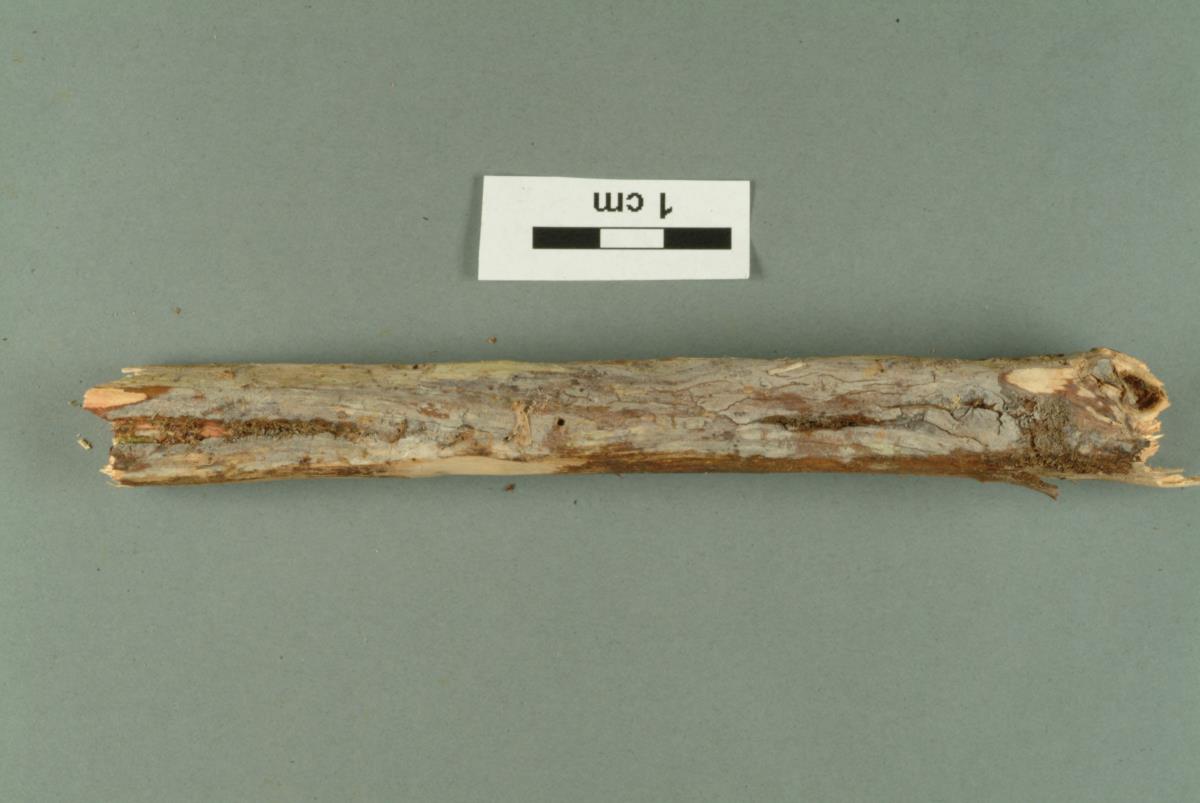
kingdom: Fungi
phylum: Basidiomycota
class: Agaricomycetes
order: Polyporales
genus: Phlebiella
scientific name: Phlebiella
